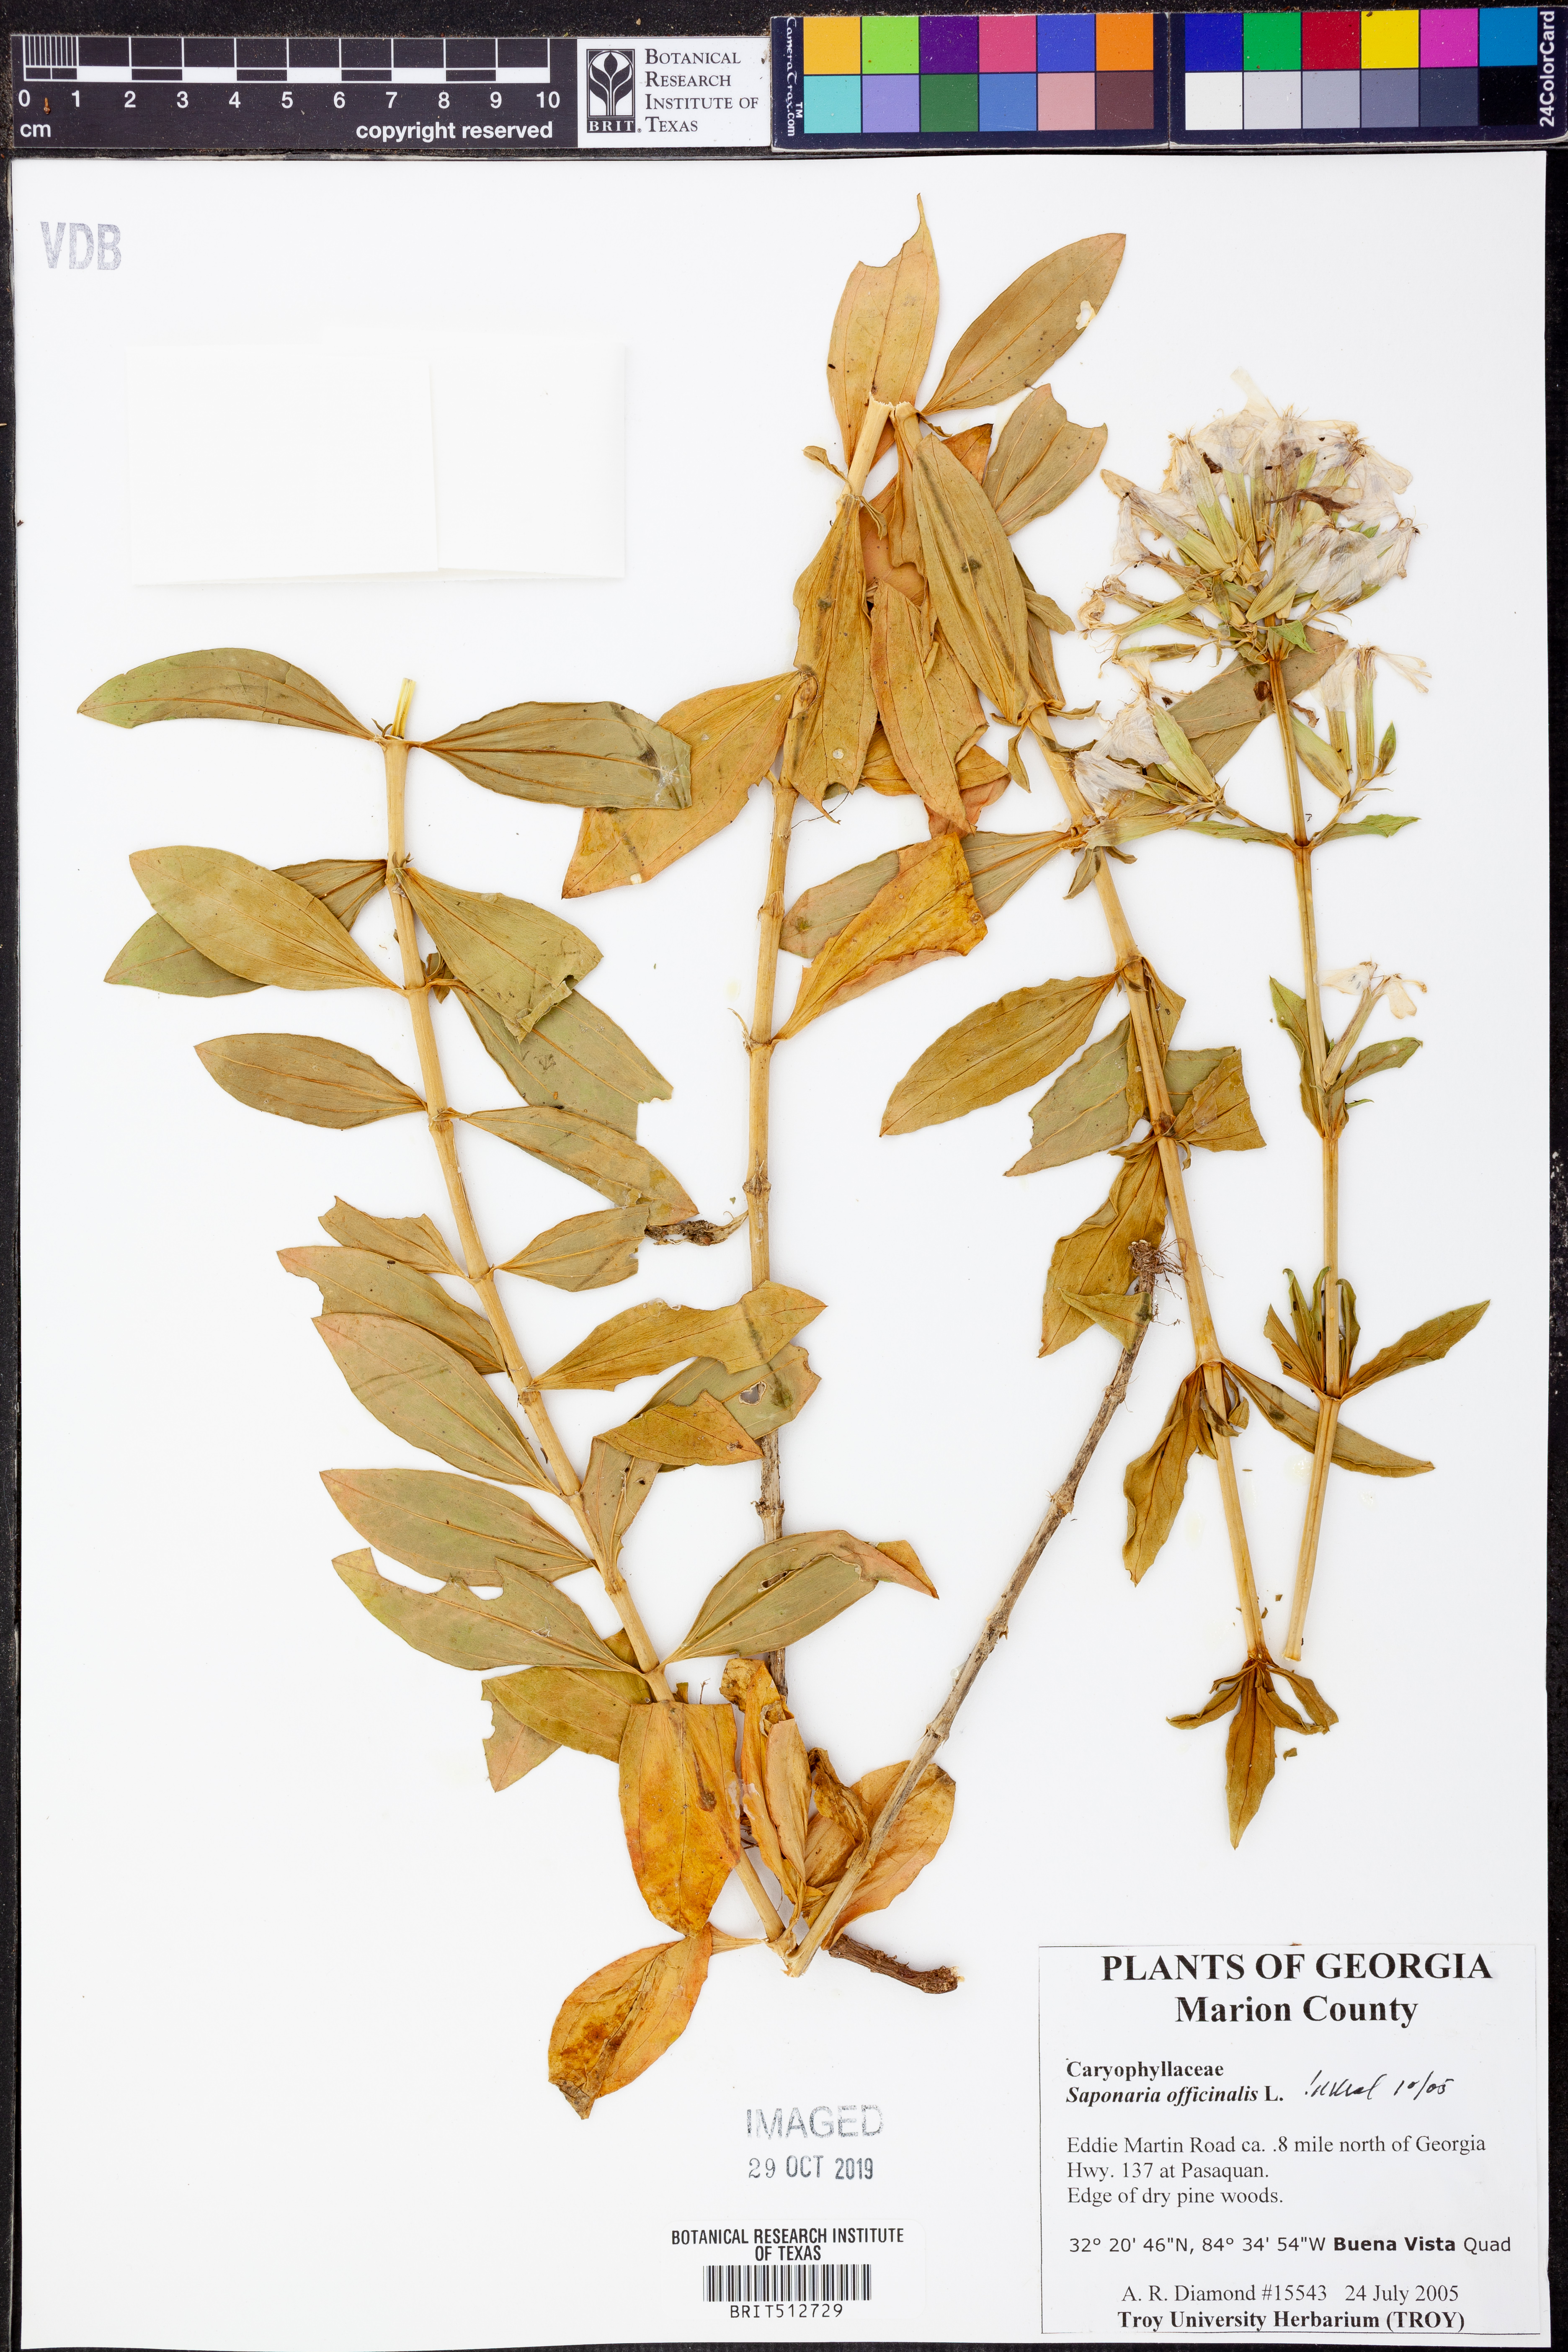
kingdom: Plantae
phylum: Tracheophyta
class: Magnoliopsida
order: Caryophyllales
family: Caryophyllaceae
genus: Saponaria
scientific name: Saponaria officinalis
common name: Soapwort
